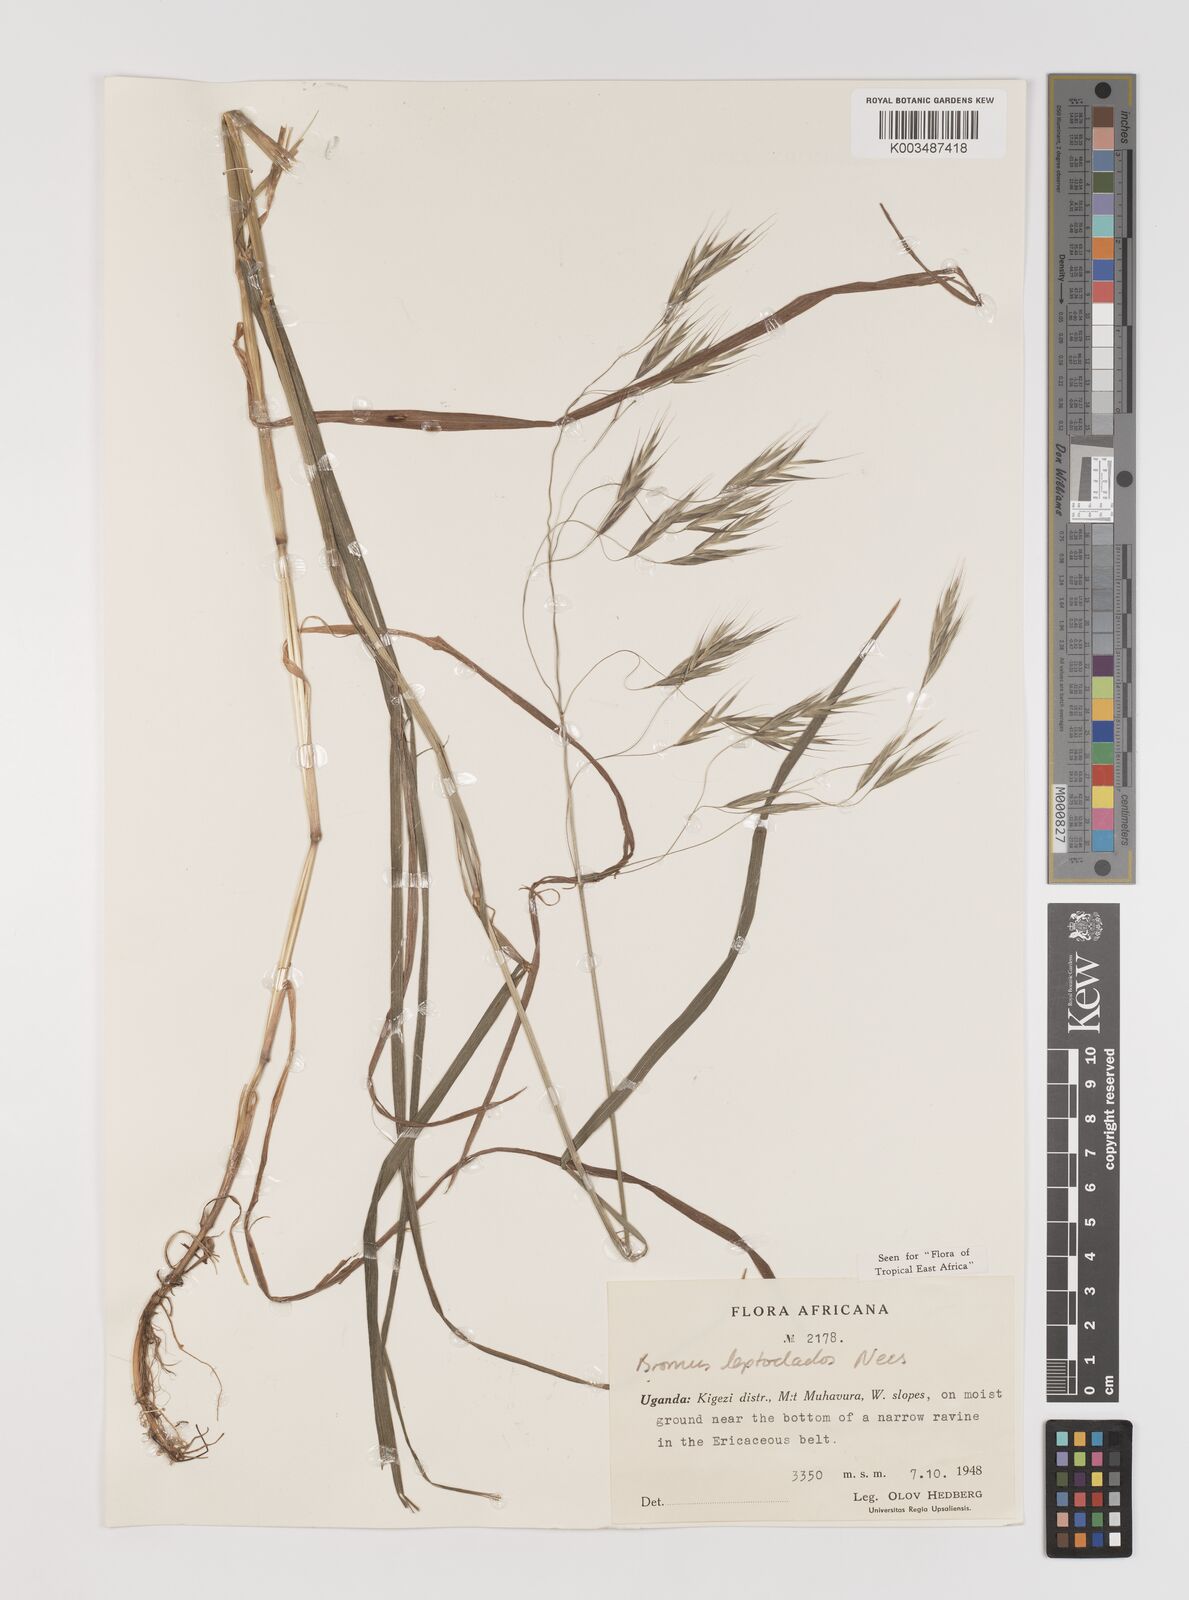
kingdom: Plantae
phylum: Tracheophyta
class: Liliopsida
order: Poales
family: Poaceae
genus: Bromus
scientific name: Bromus leptoclados
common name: Mountain bromegrass
